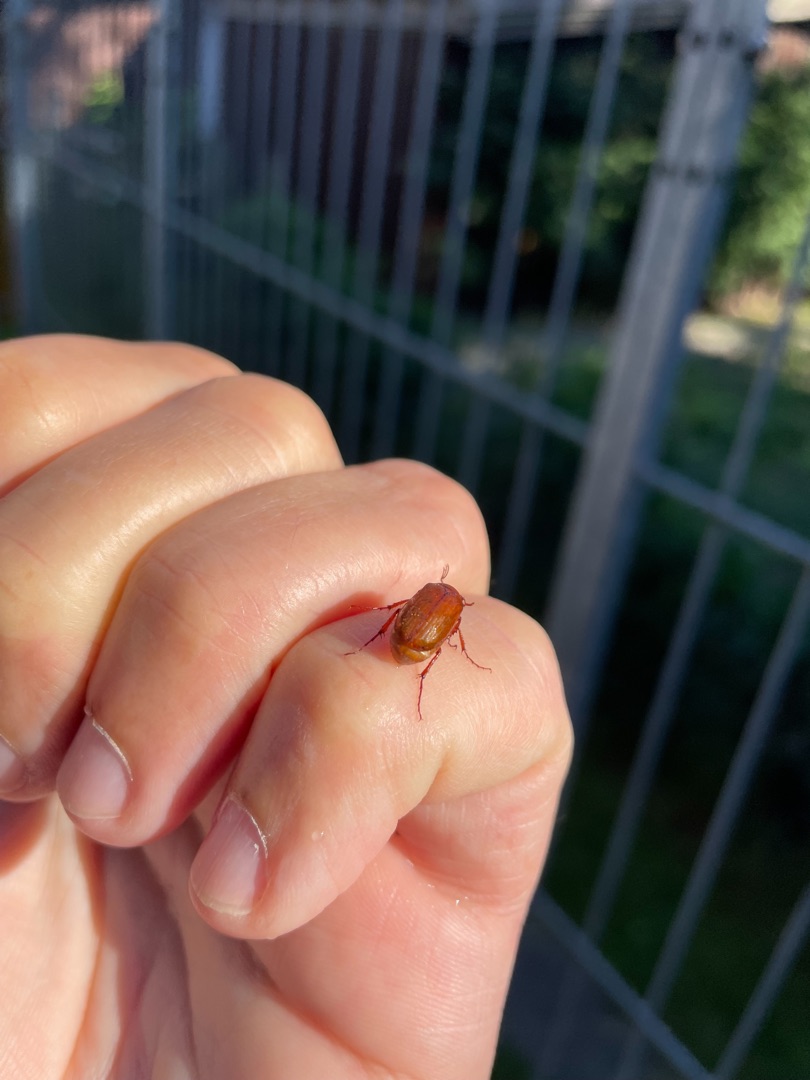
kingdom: Animalia
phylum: Arthropoda
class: Insecta
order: Coleoptera
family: Scarabaeidae
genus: Serica
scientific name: Serica brunnea
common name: Natoldenborre
